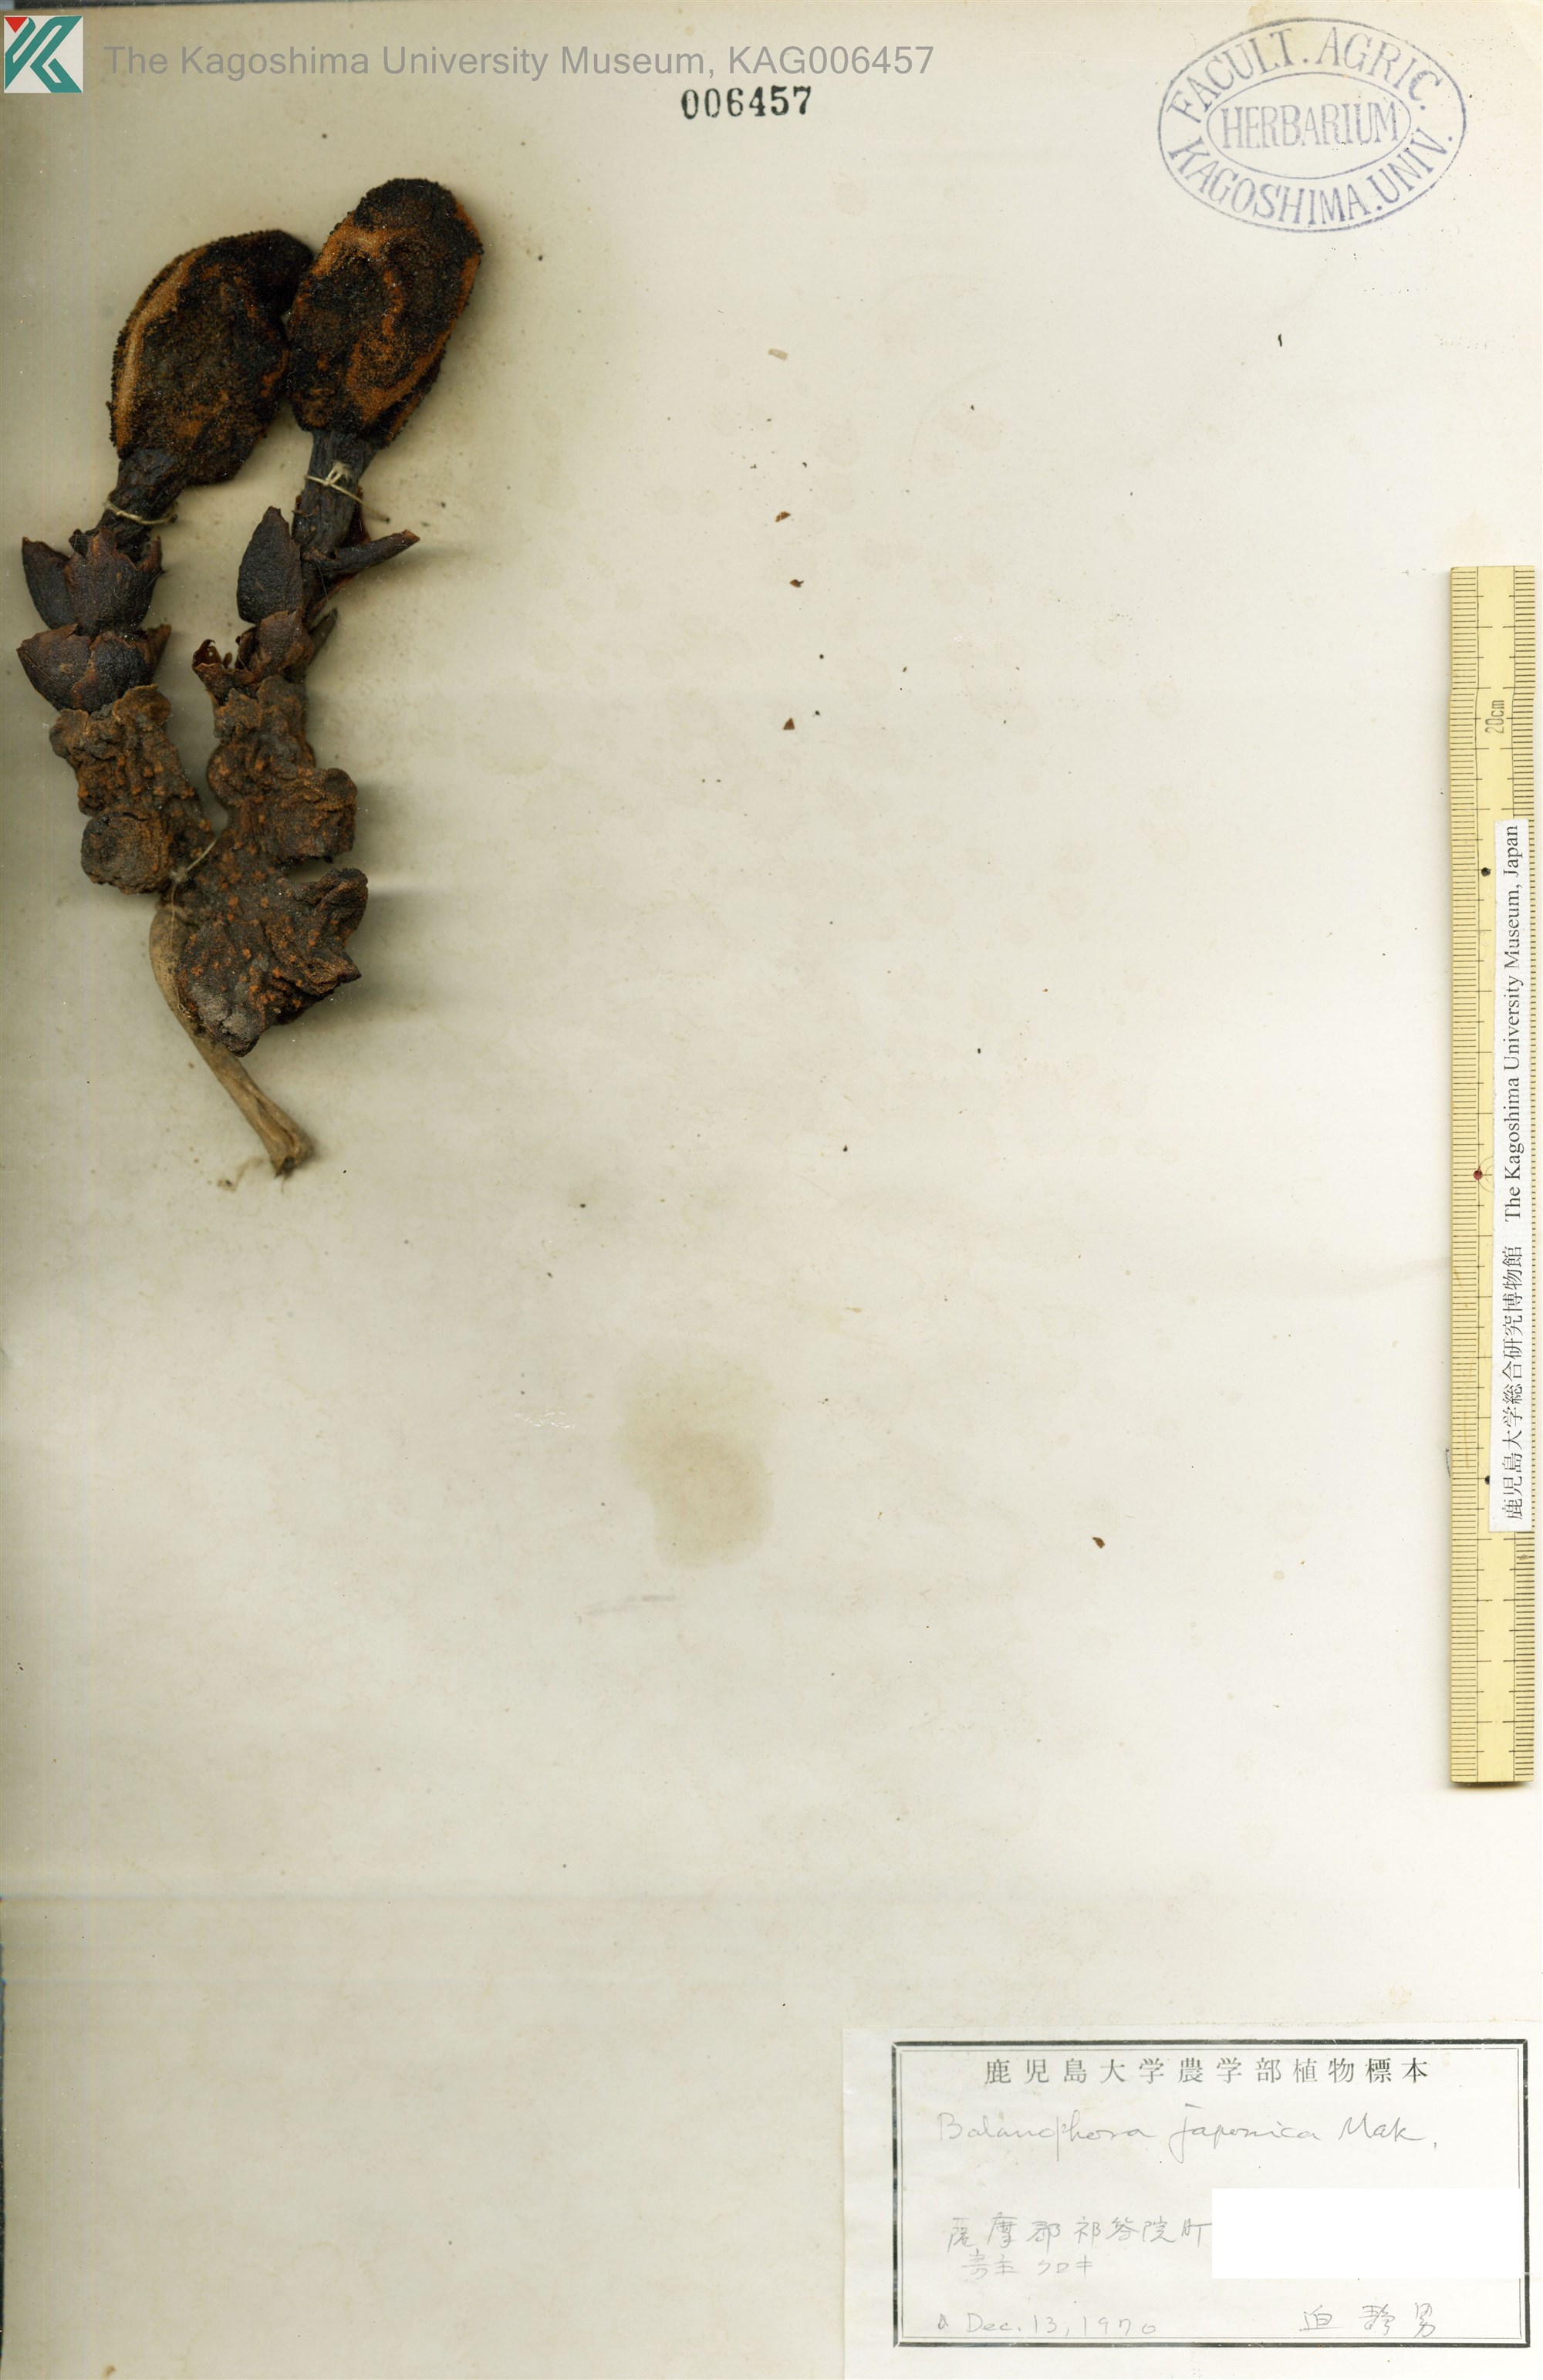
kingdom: Plantae
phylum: Tracheophyta
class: Magnoliopsida
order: Santalales
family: Balanophoraceae
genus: Balanophora
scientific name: Balanophora japonica
